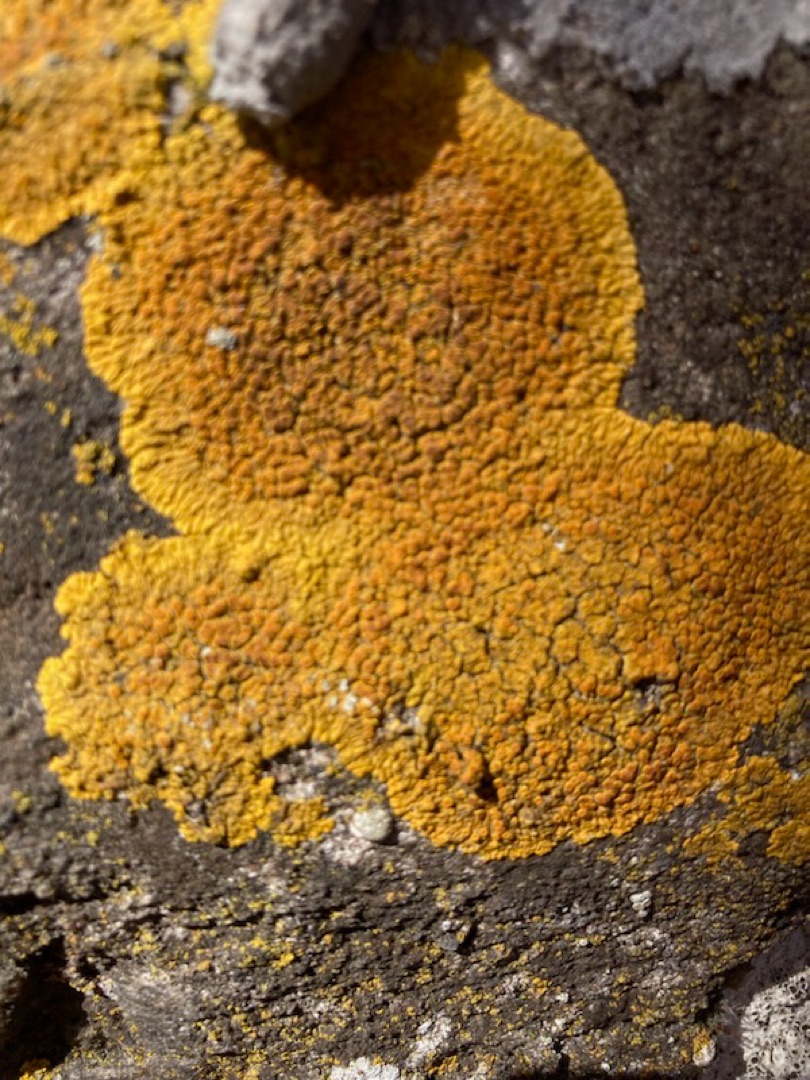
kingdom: Fungi
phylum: Ascomycota
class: Lecanoromycetes
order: Teloschistales
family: Teloschistaceae
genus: Variospora
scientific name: Variospora flavescens
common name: Kalk-orangelav
